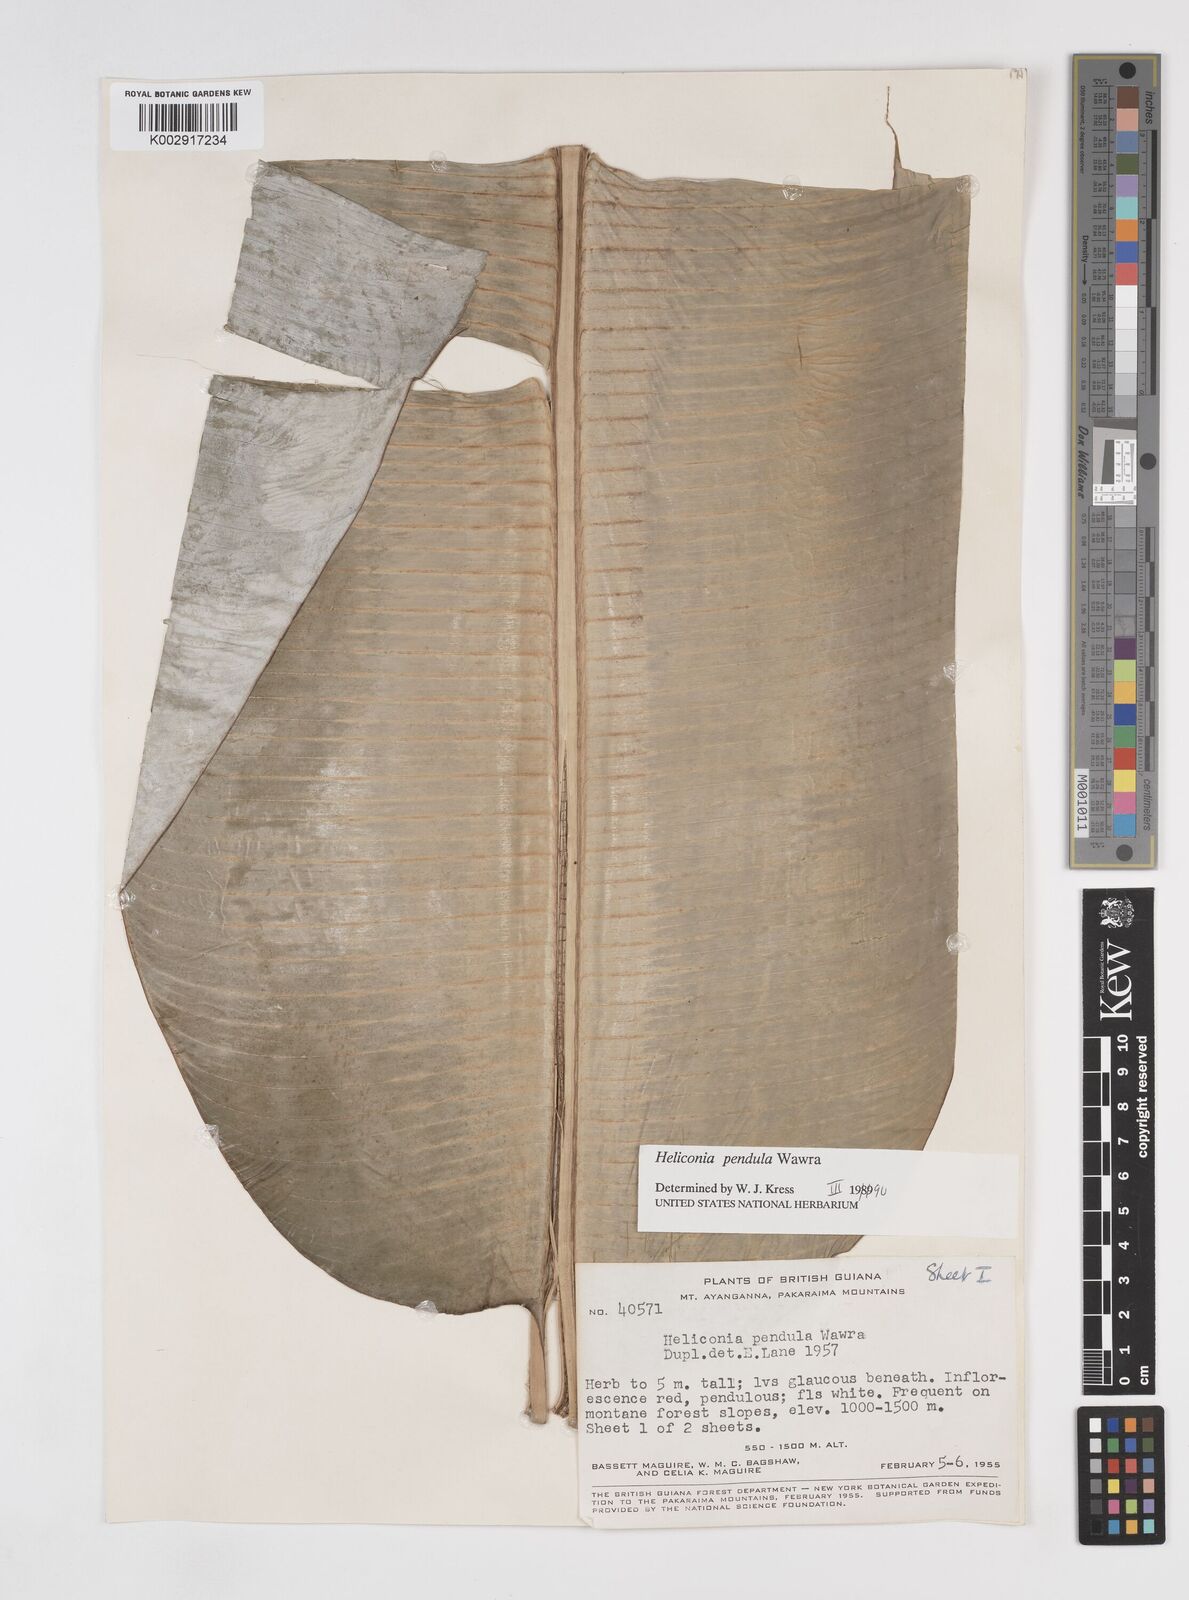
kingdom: Plantae
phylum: Tracheophyta
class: Liliopsida
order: Zingiberales
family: Heliconiaceae
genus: Heliconia
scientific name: Heliconia pendula
